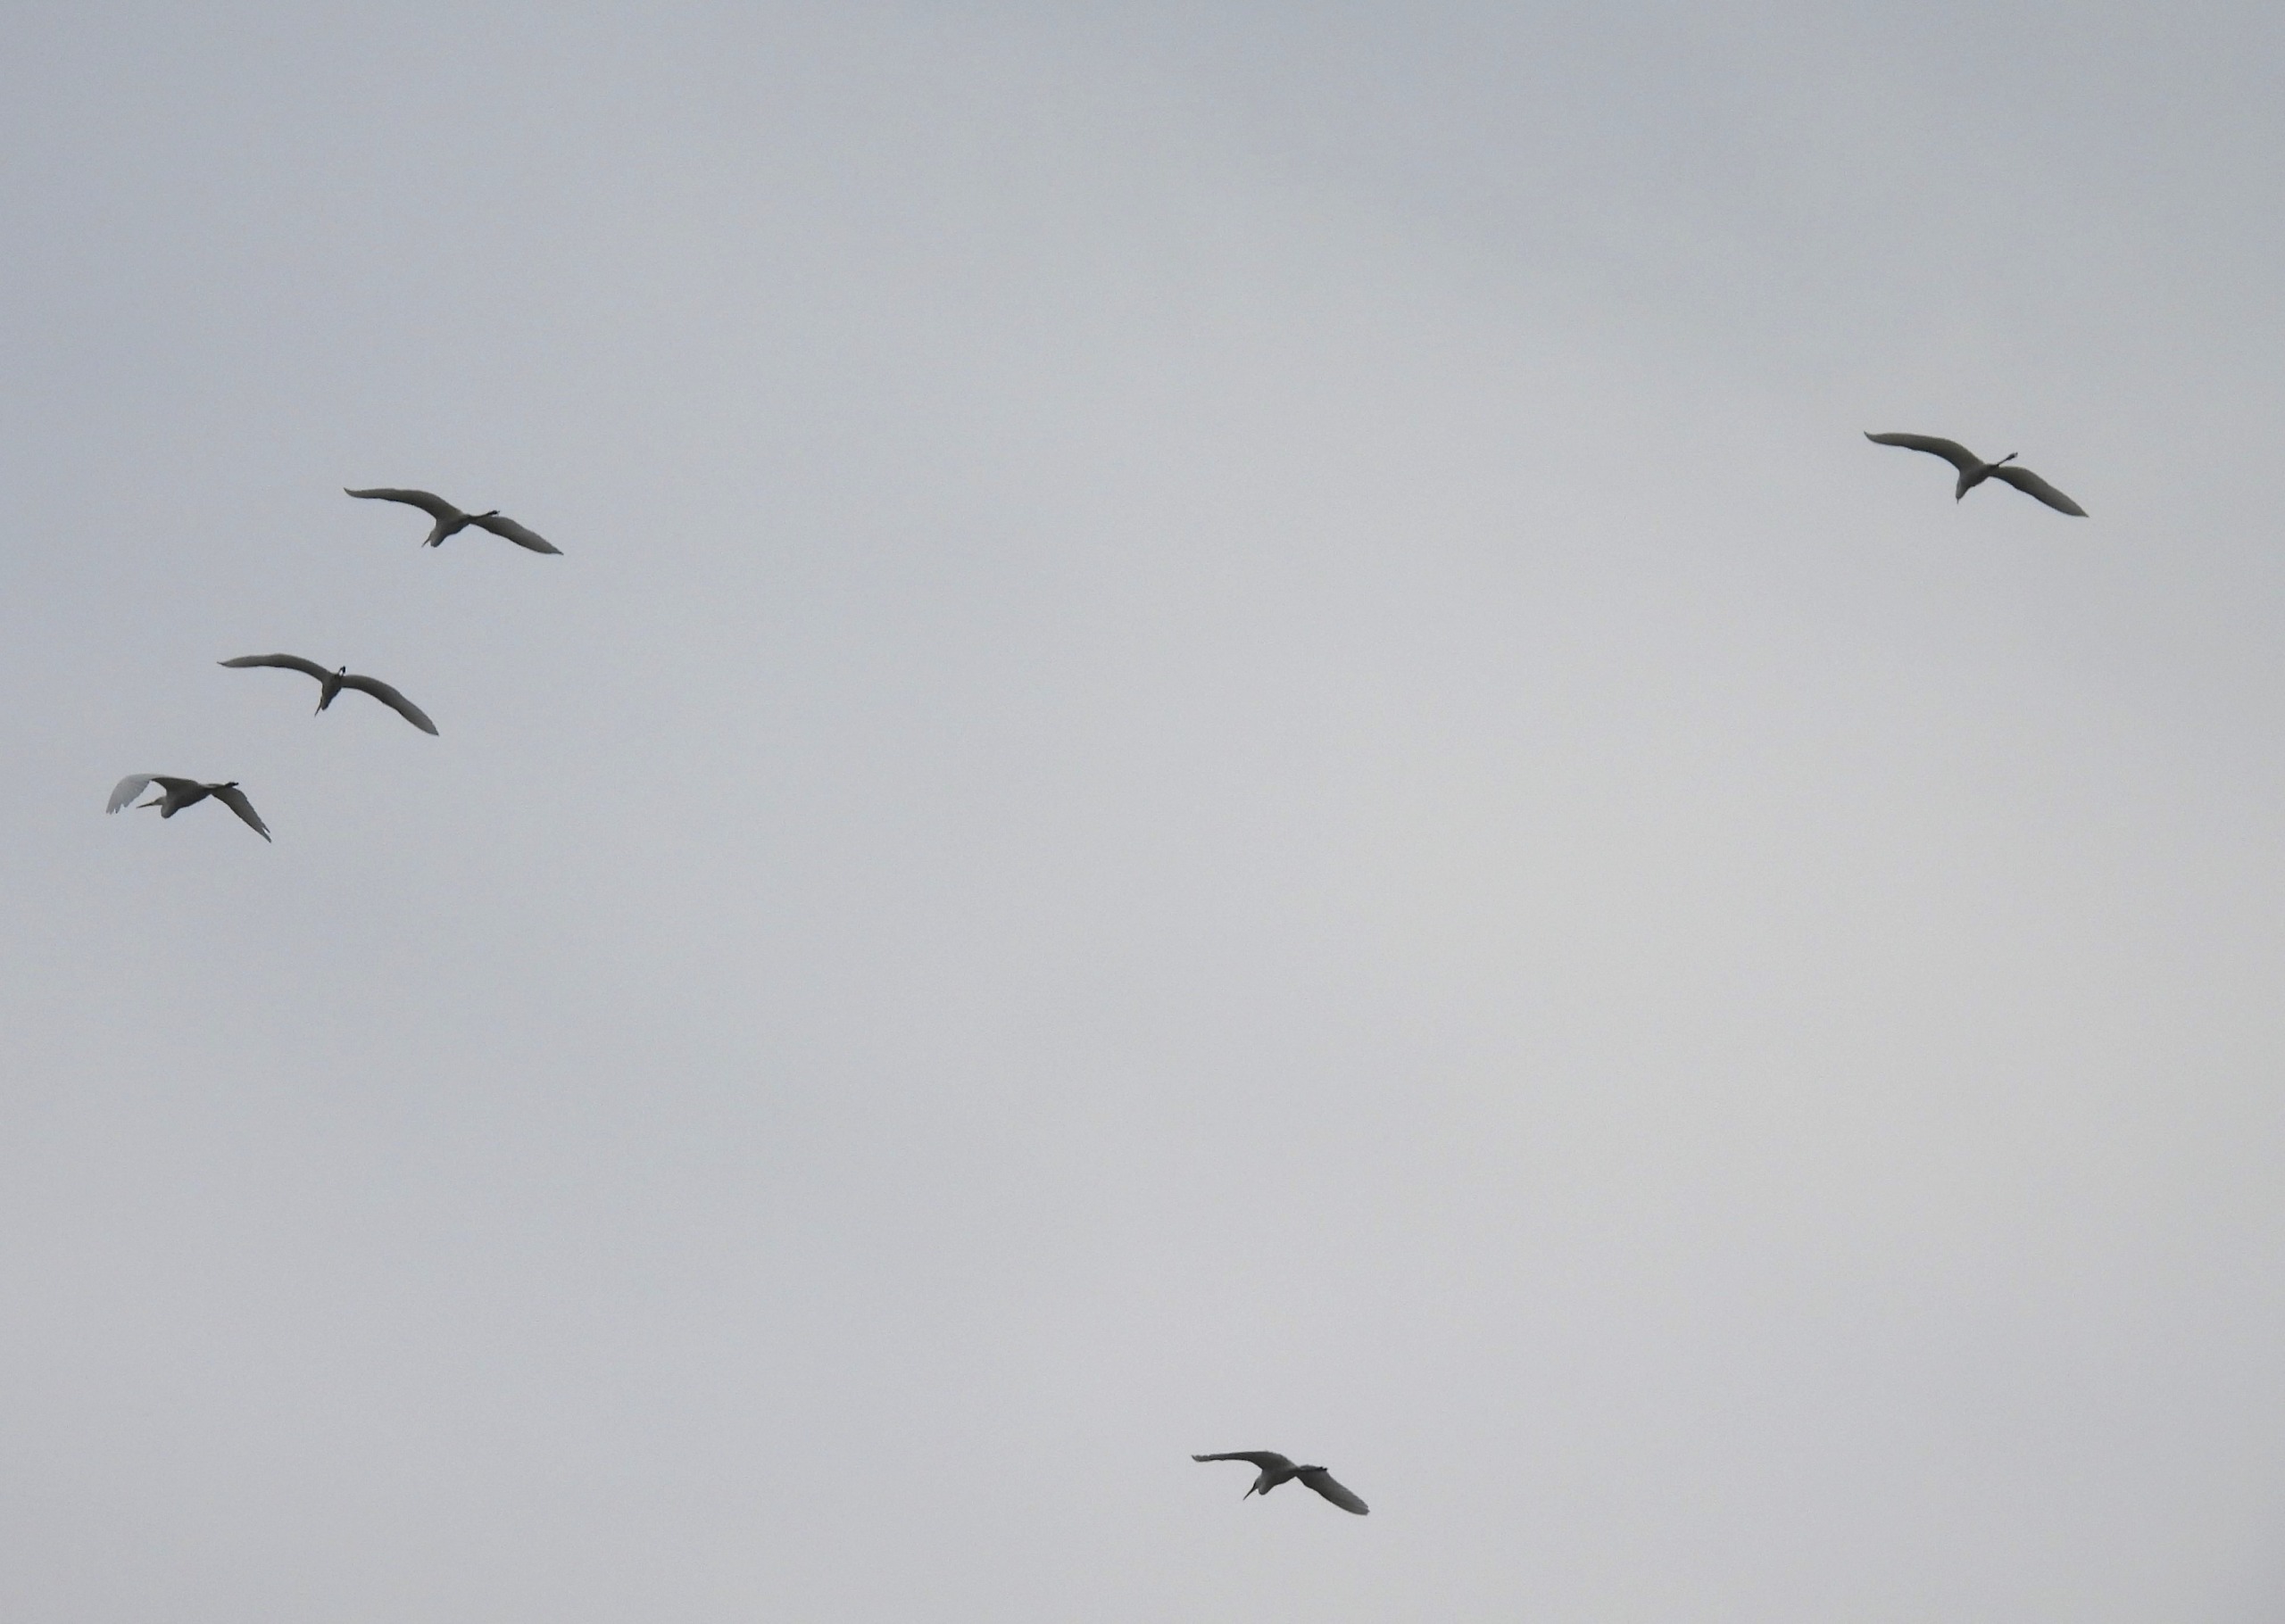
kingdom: Animalia
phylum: Chordata
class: Aves
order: Pelecaniformes
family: Ardeidae
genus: Ardea
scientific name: Ardea alba
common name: Sølvhejre
